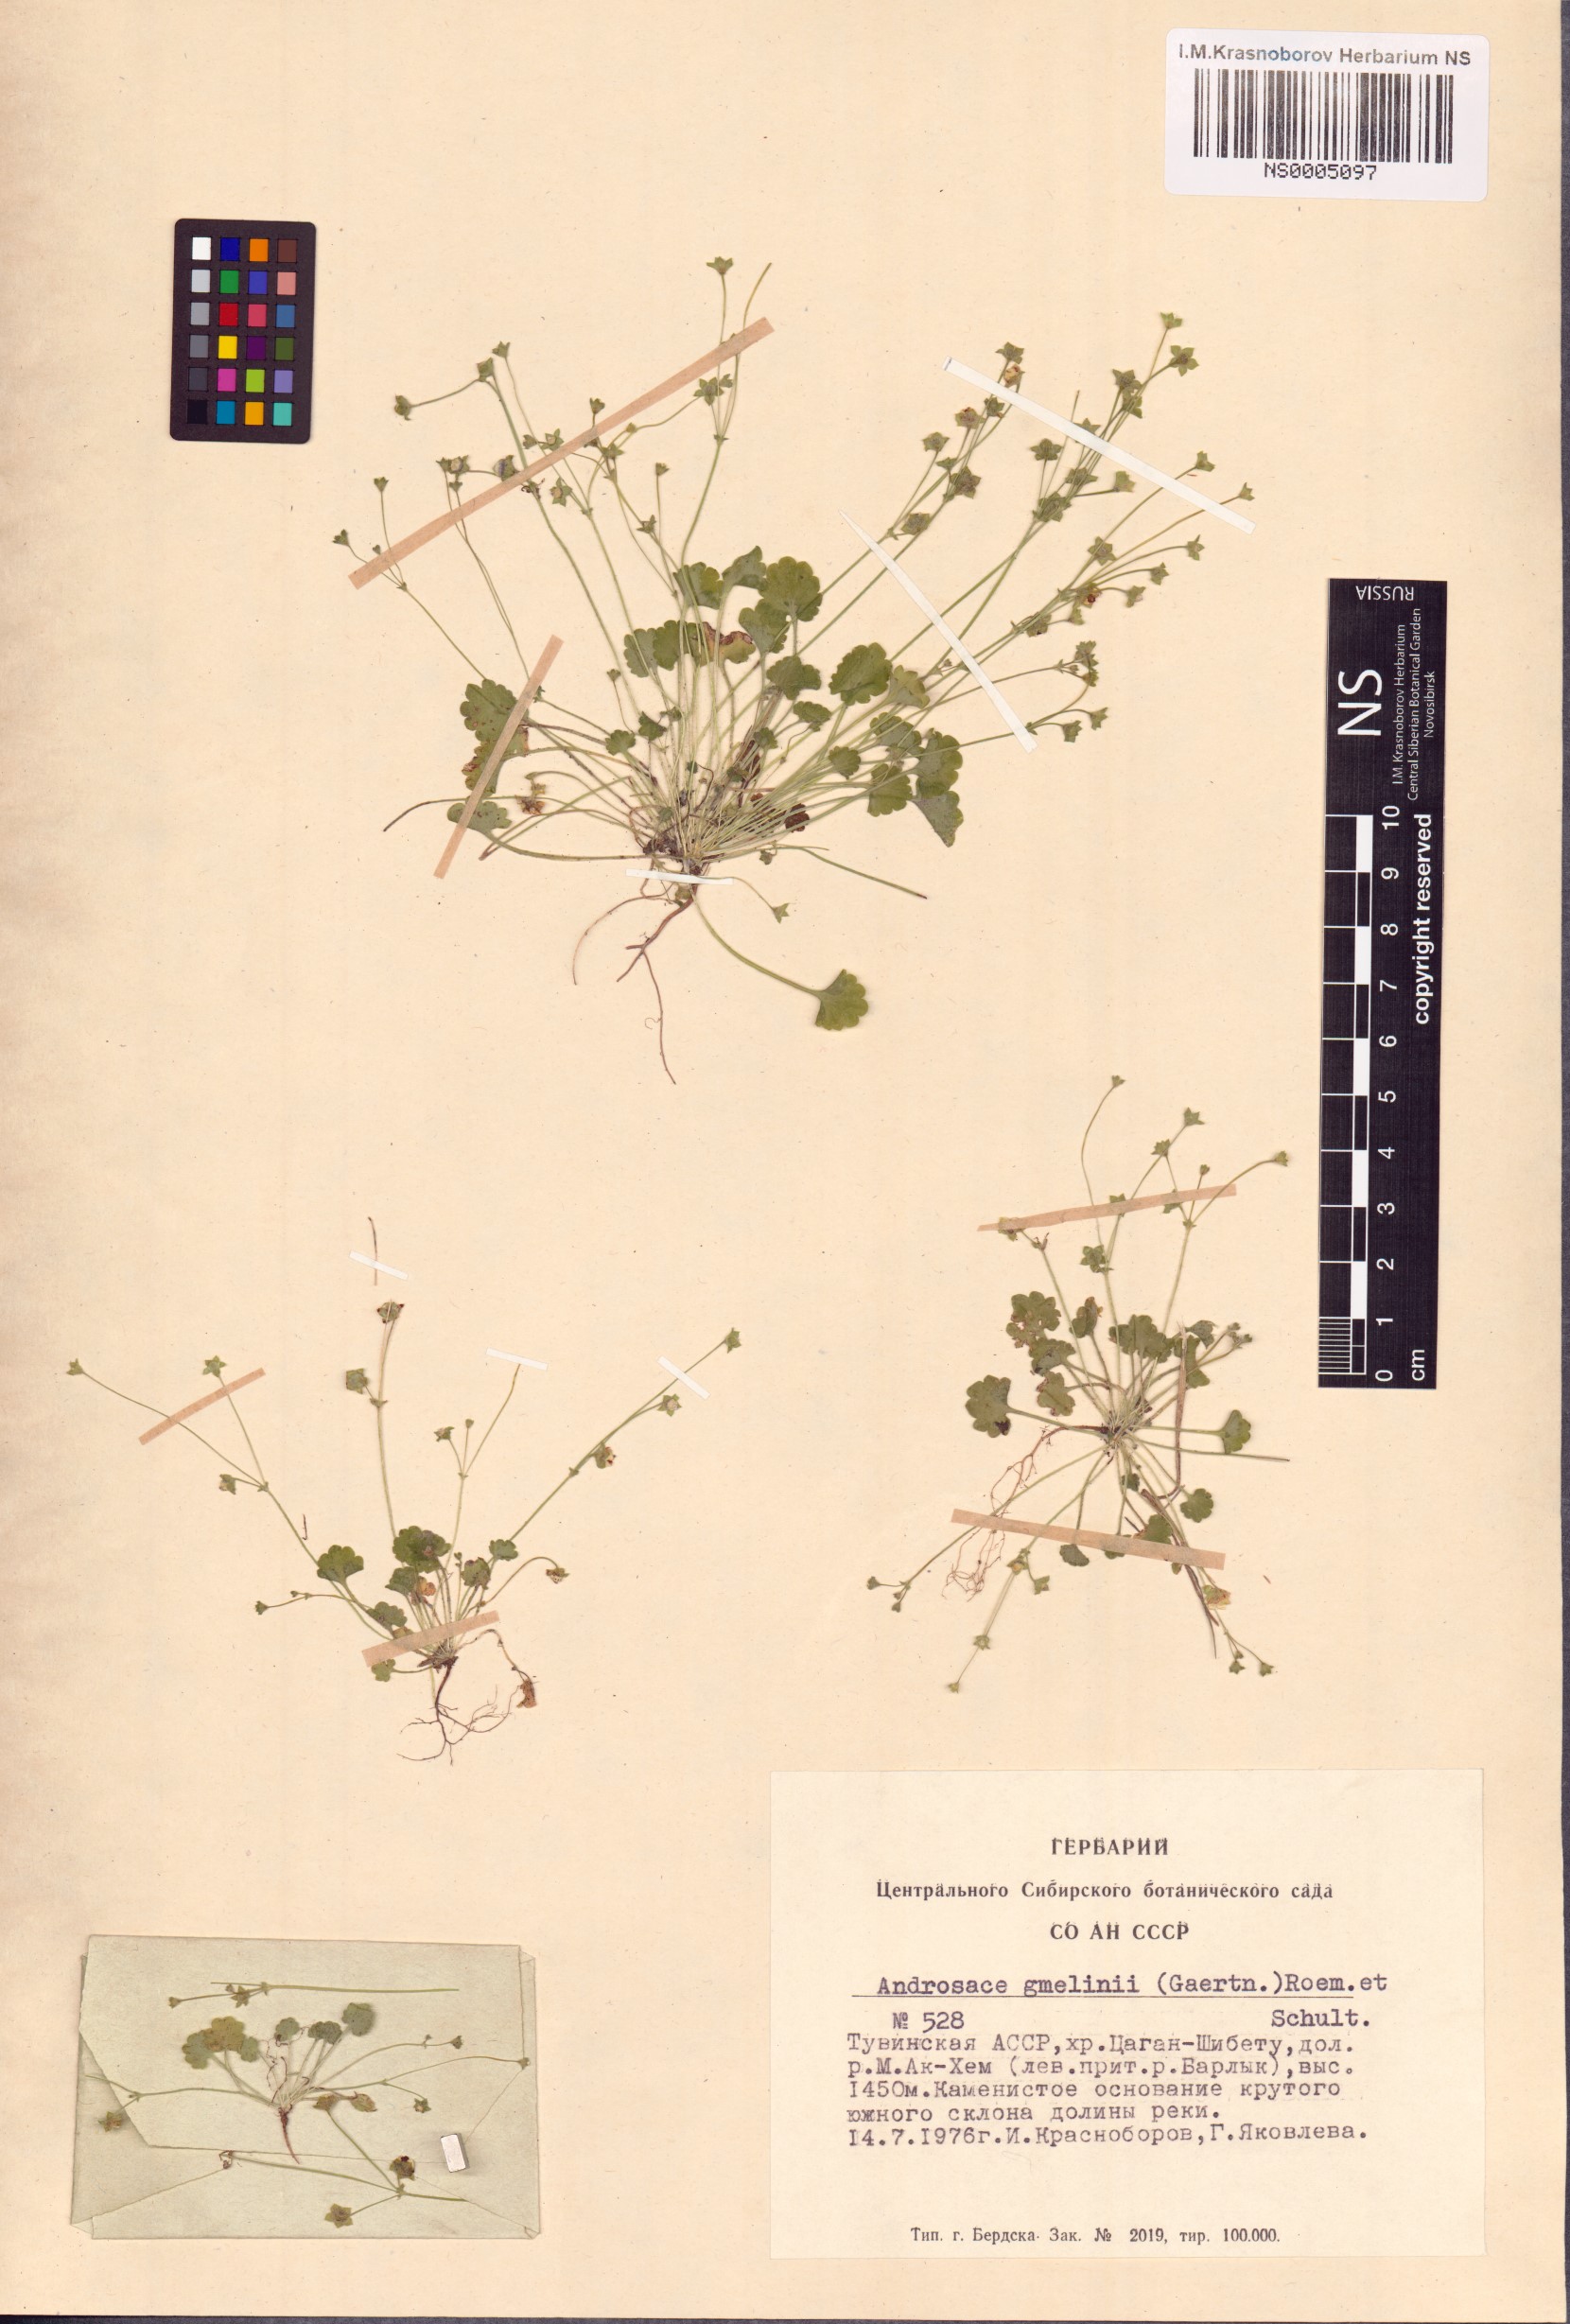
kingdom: Plantae
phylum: Tracheophyta
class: Magnoliopsida
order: Ericales
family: Primulaceae
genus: Androsace
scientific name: Androsace gmelinii
